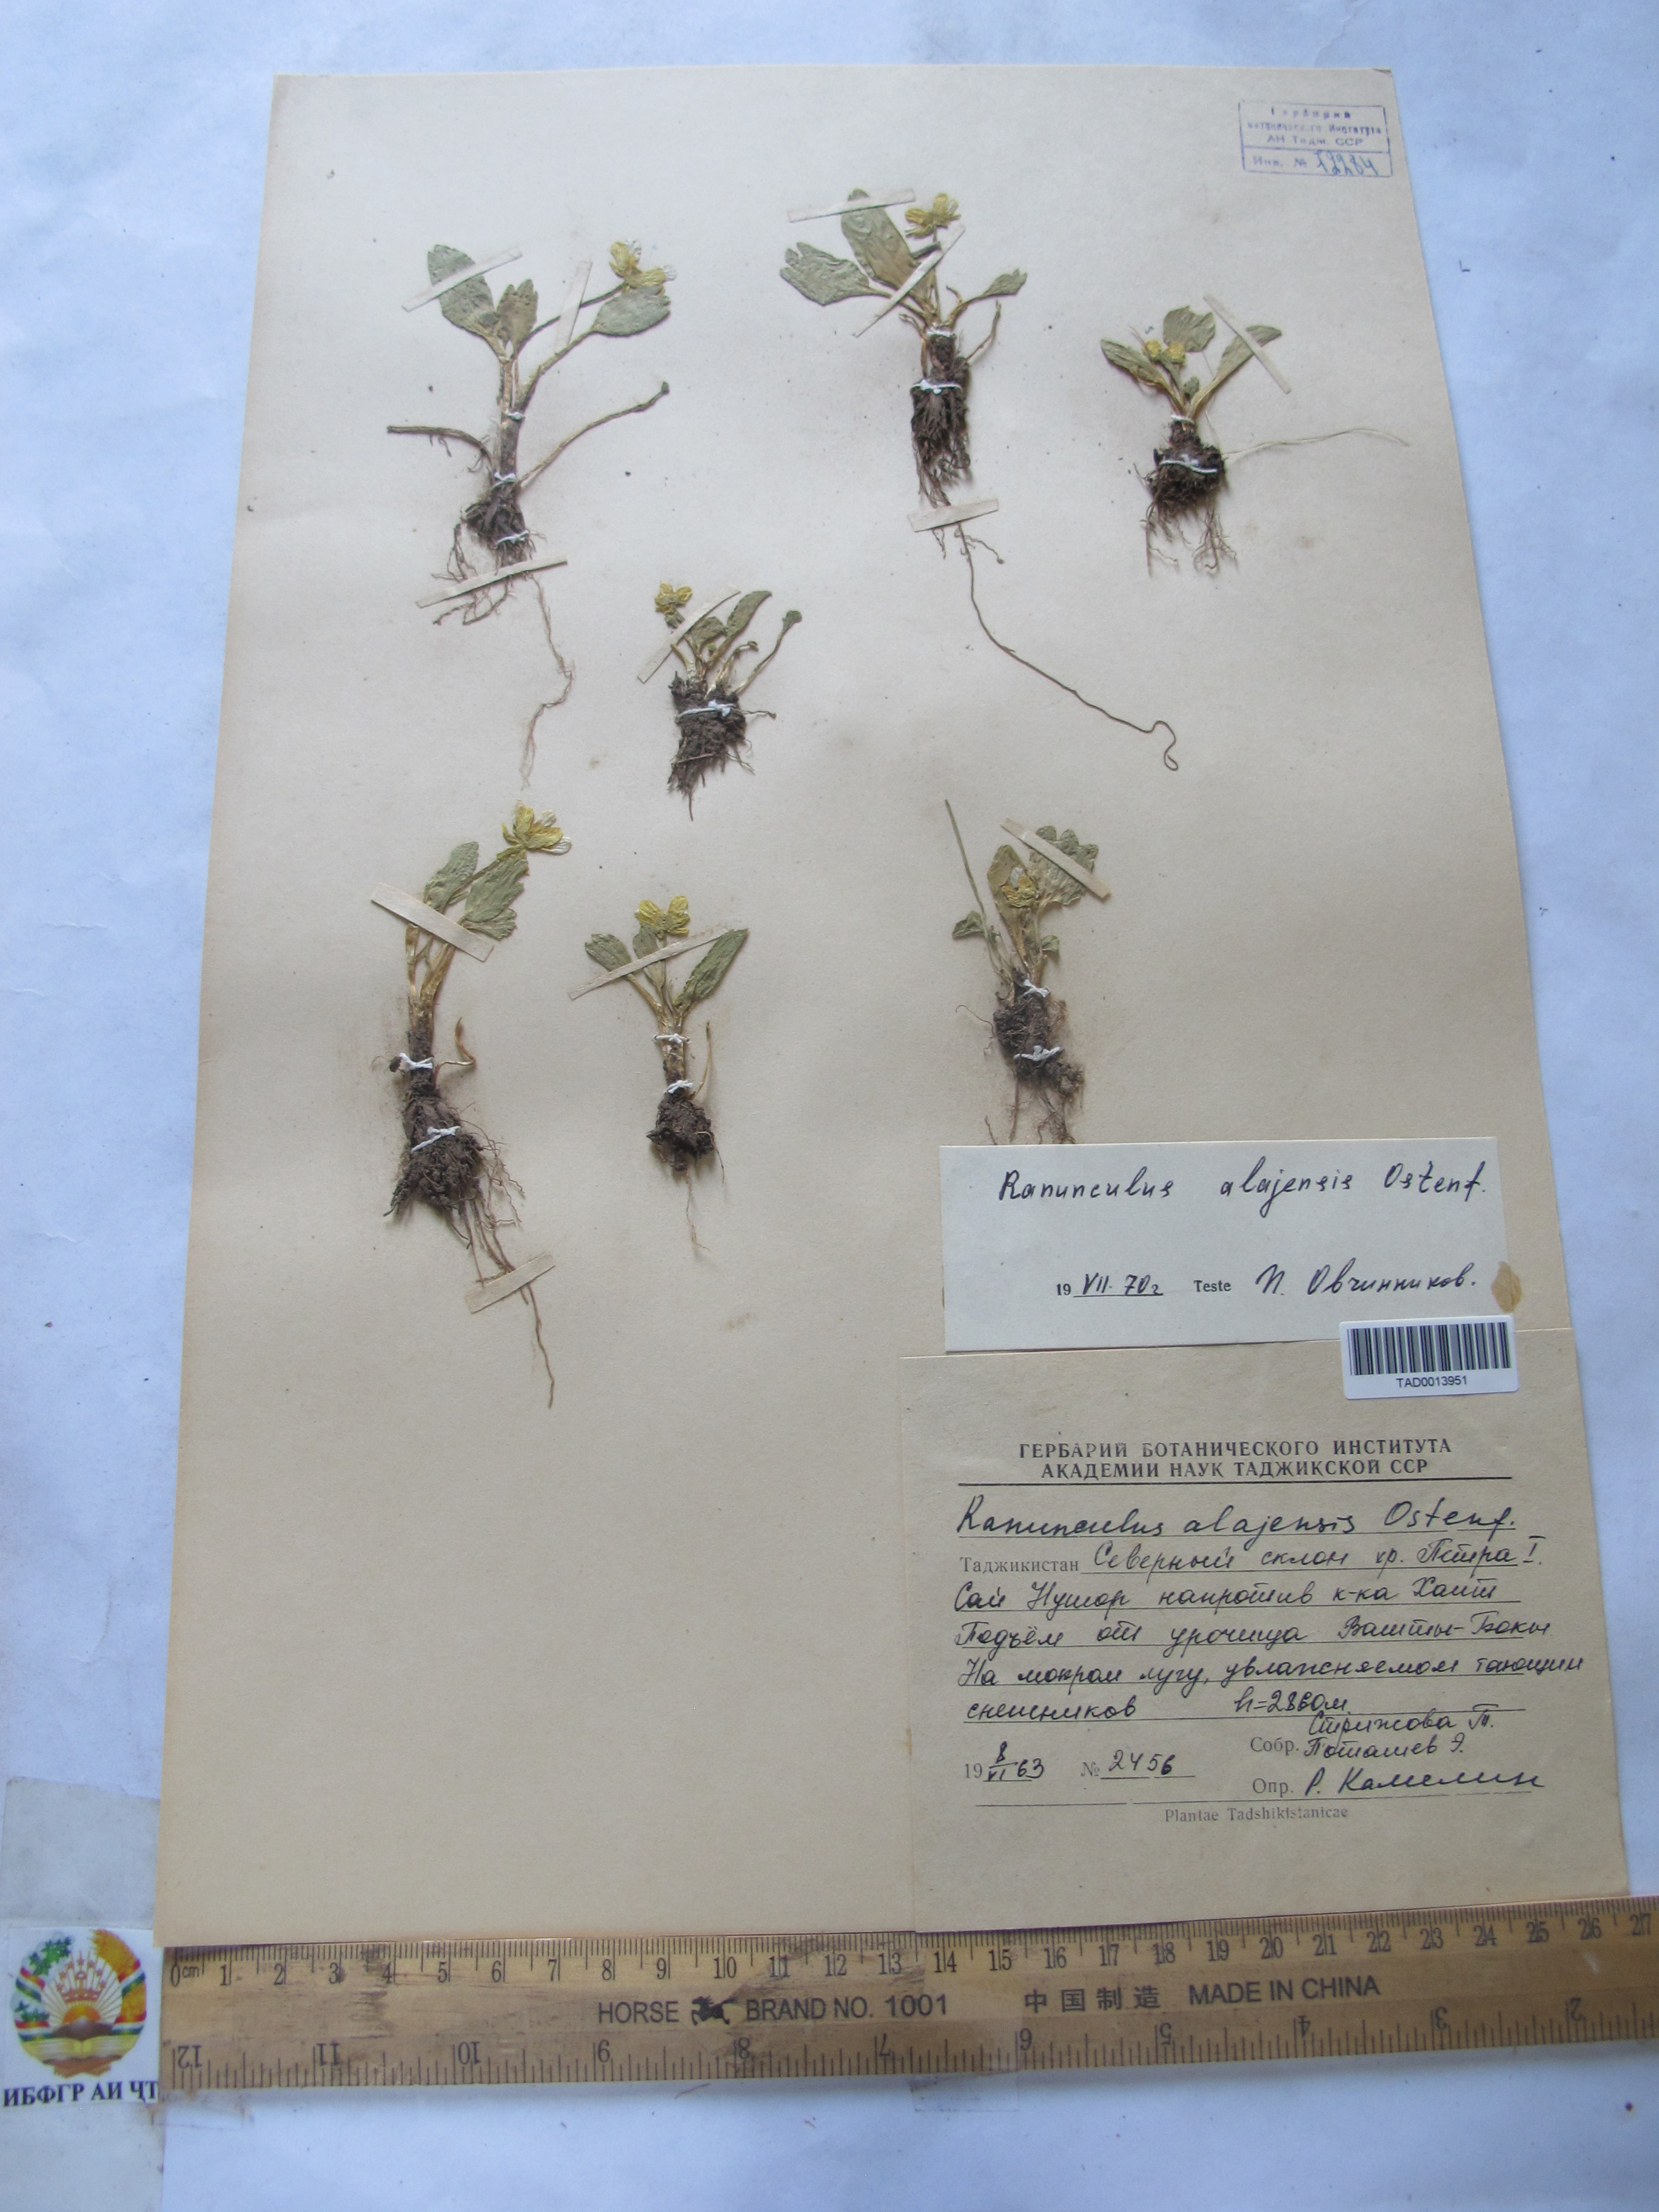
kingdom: Plantae
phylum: Tracheophyta
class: Magnoliopsida
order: Ranunculales
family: Ranunculaceae
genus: Ranunculus
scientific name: Ranunculus alaiensis
